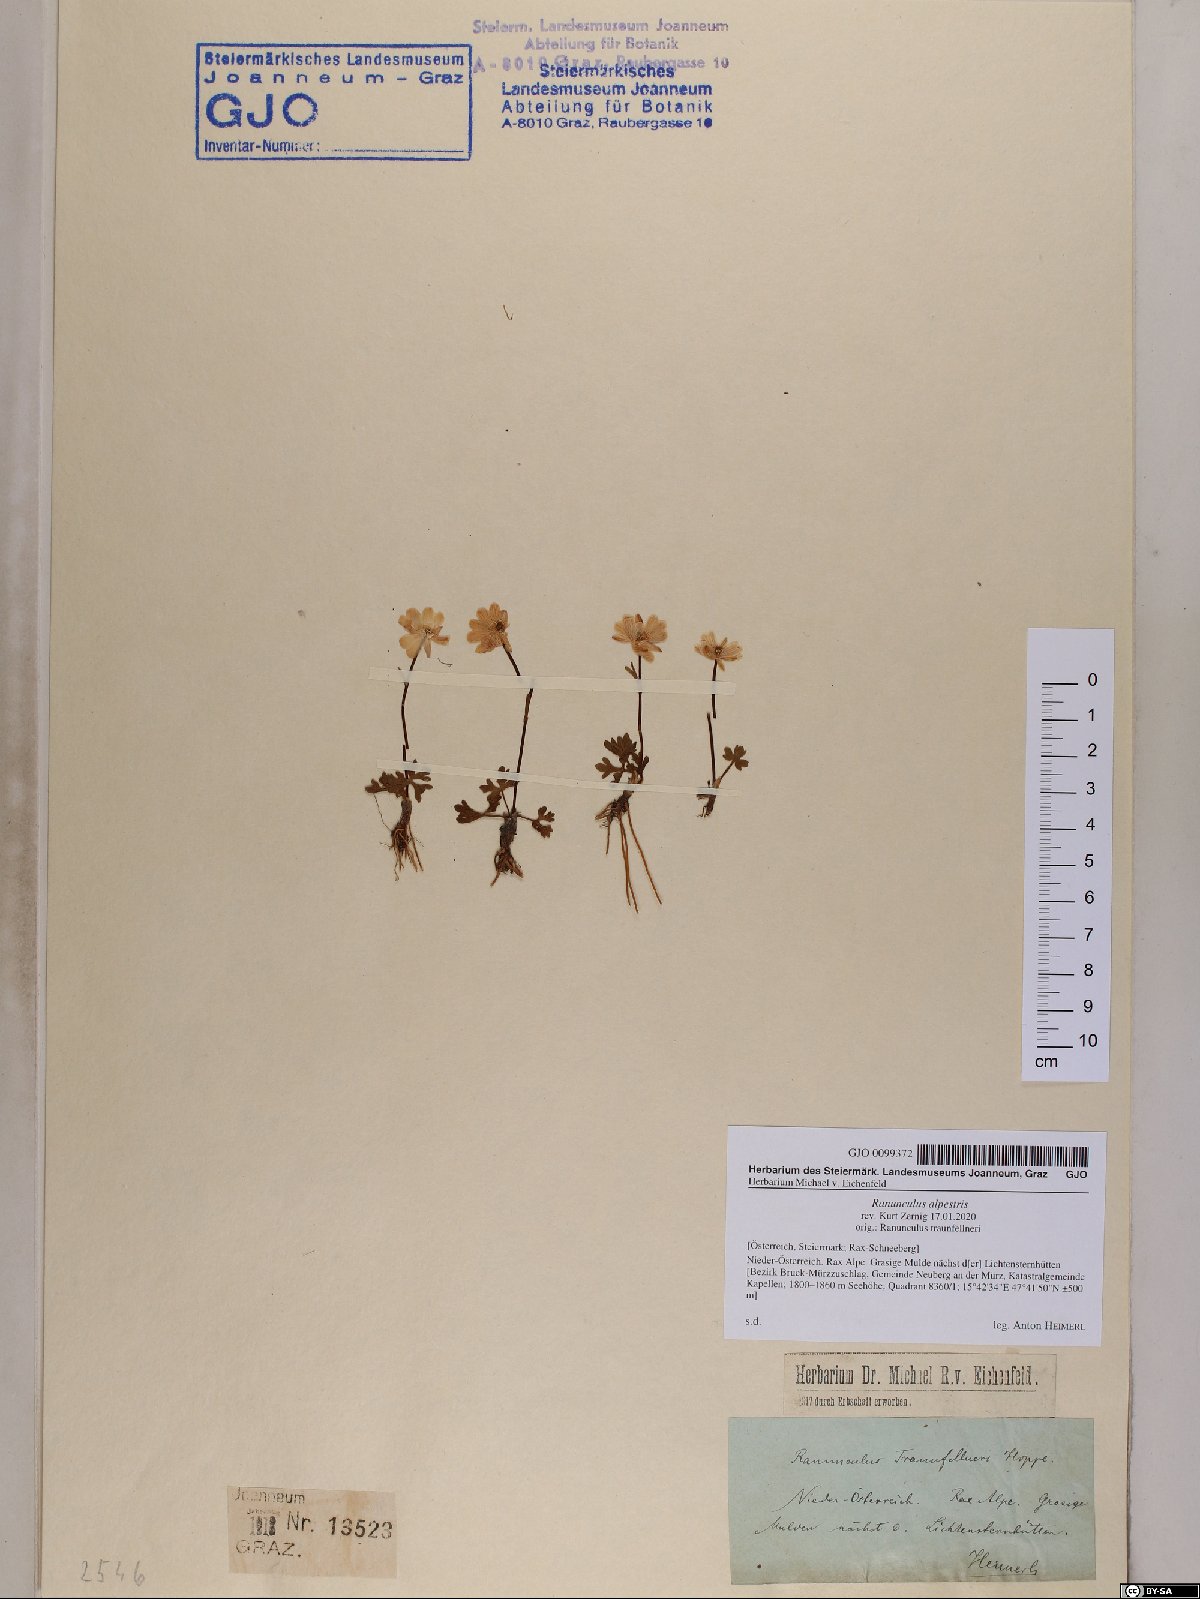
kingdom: Plantae
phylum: Tracheophyta
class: Magnoliopsida
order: Ranunculales
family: Ranunculaceae
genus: Ranunculus
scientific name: Ranunculus alpestris
